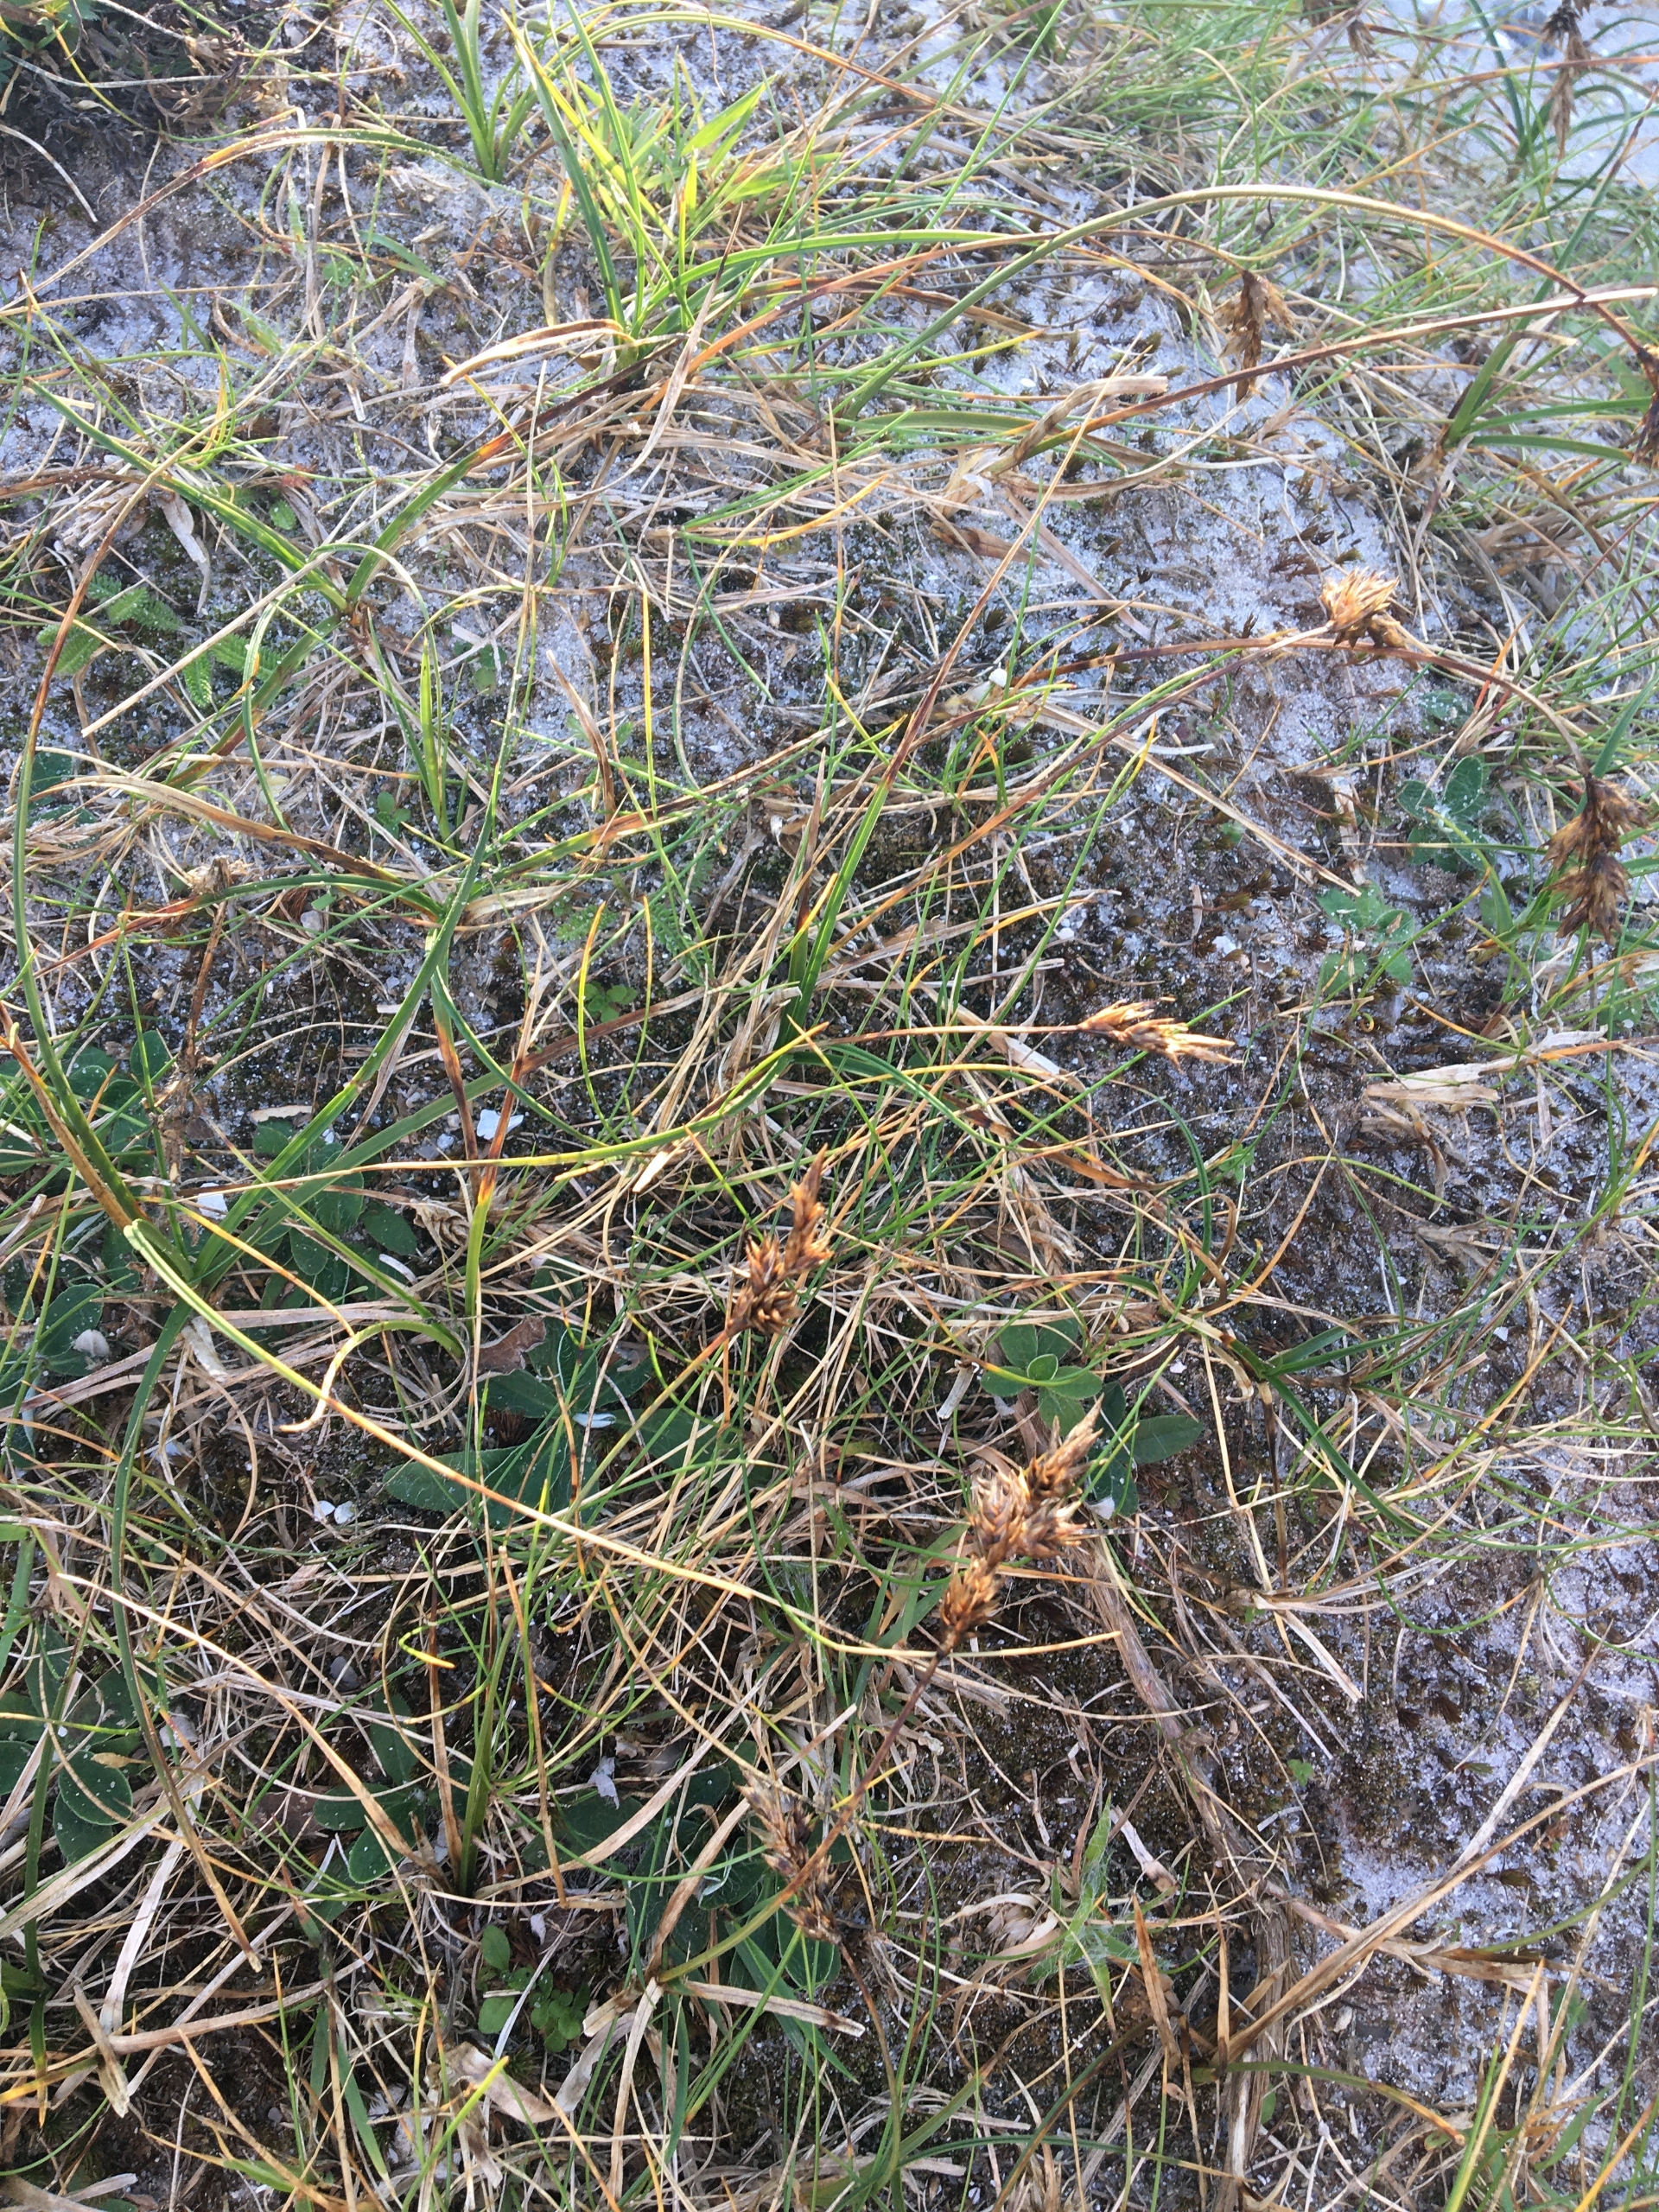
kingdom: Plantae
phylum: Tracheophyta
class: Liliopsida
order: Poales
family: Cyperaceae
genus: Carex
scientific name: Carex arenaria
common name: Sand-star
